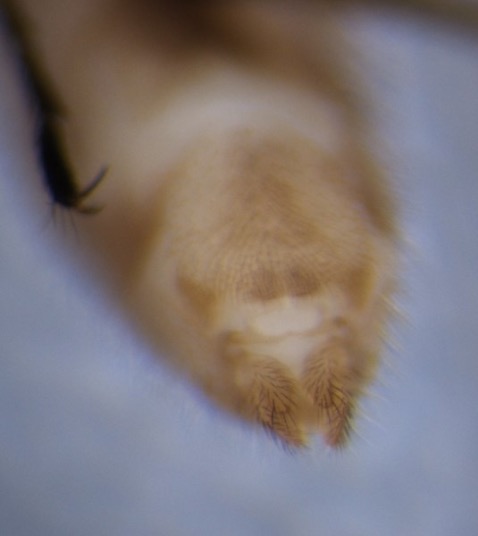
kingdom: Animalia
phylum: Arthropoda
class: Insecta
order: Diptera
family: Dixidae
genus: Dixella
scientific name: Dixella aestivalis
